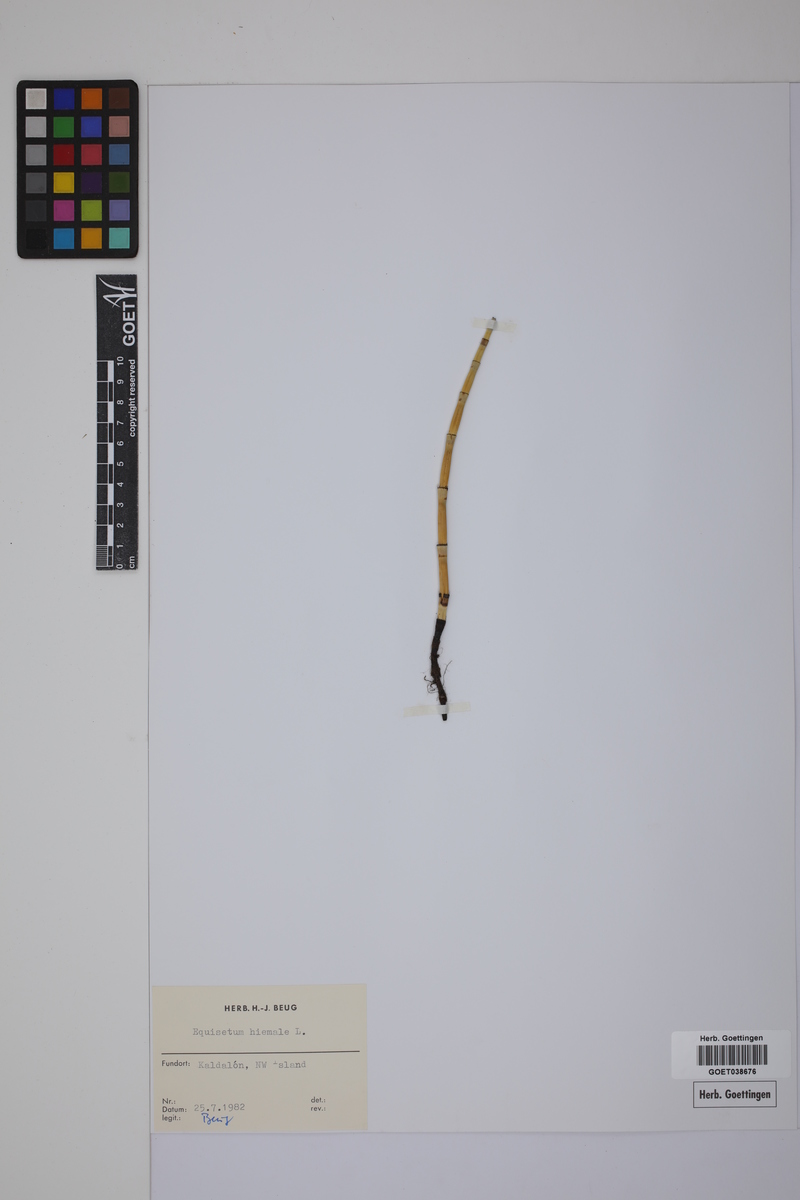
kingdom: Plantae
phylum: Tracheophyta
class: Polypodiopsida
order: Equisetales
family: Equisetaceae
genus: Equisetum
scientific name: Equisetum hyemale
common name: Rough horsetail
